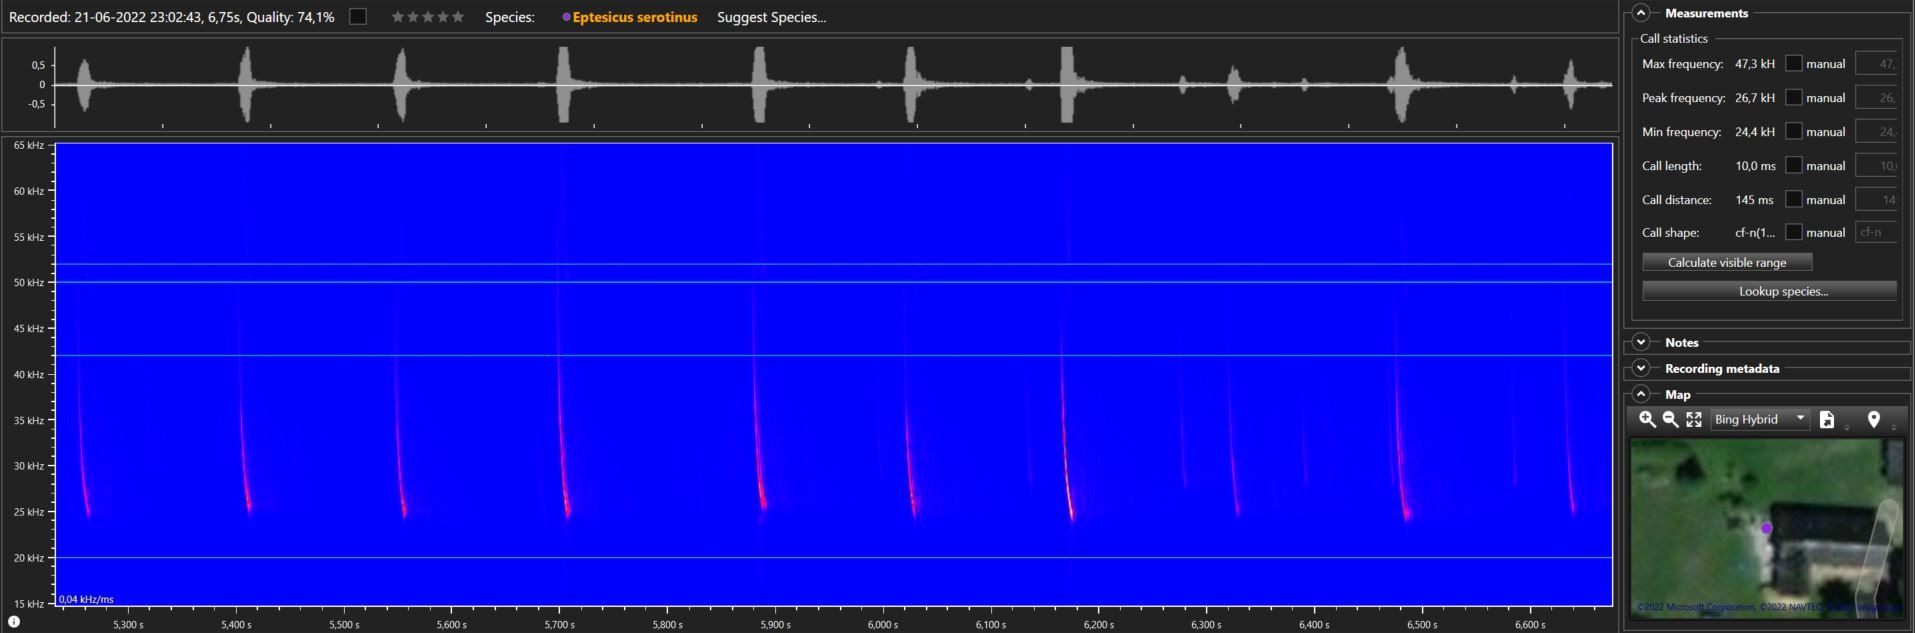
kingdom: Animalia
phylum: Chordata
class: Mammalia
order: Chiroptera
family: Vespertilionidae
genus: Eptesicus
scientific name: Eptesicus serotinus
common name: Sydflagermus
